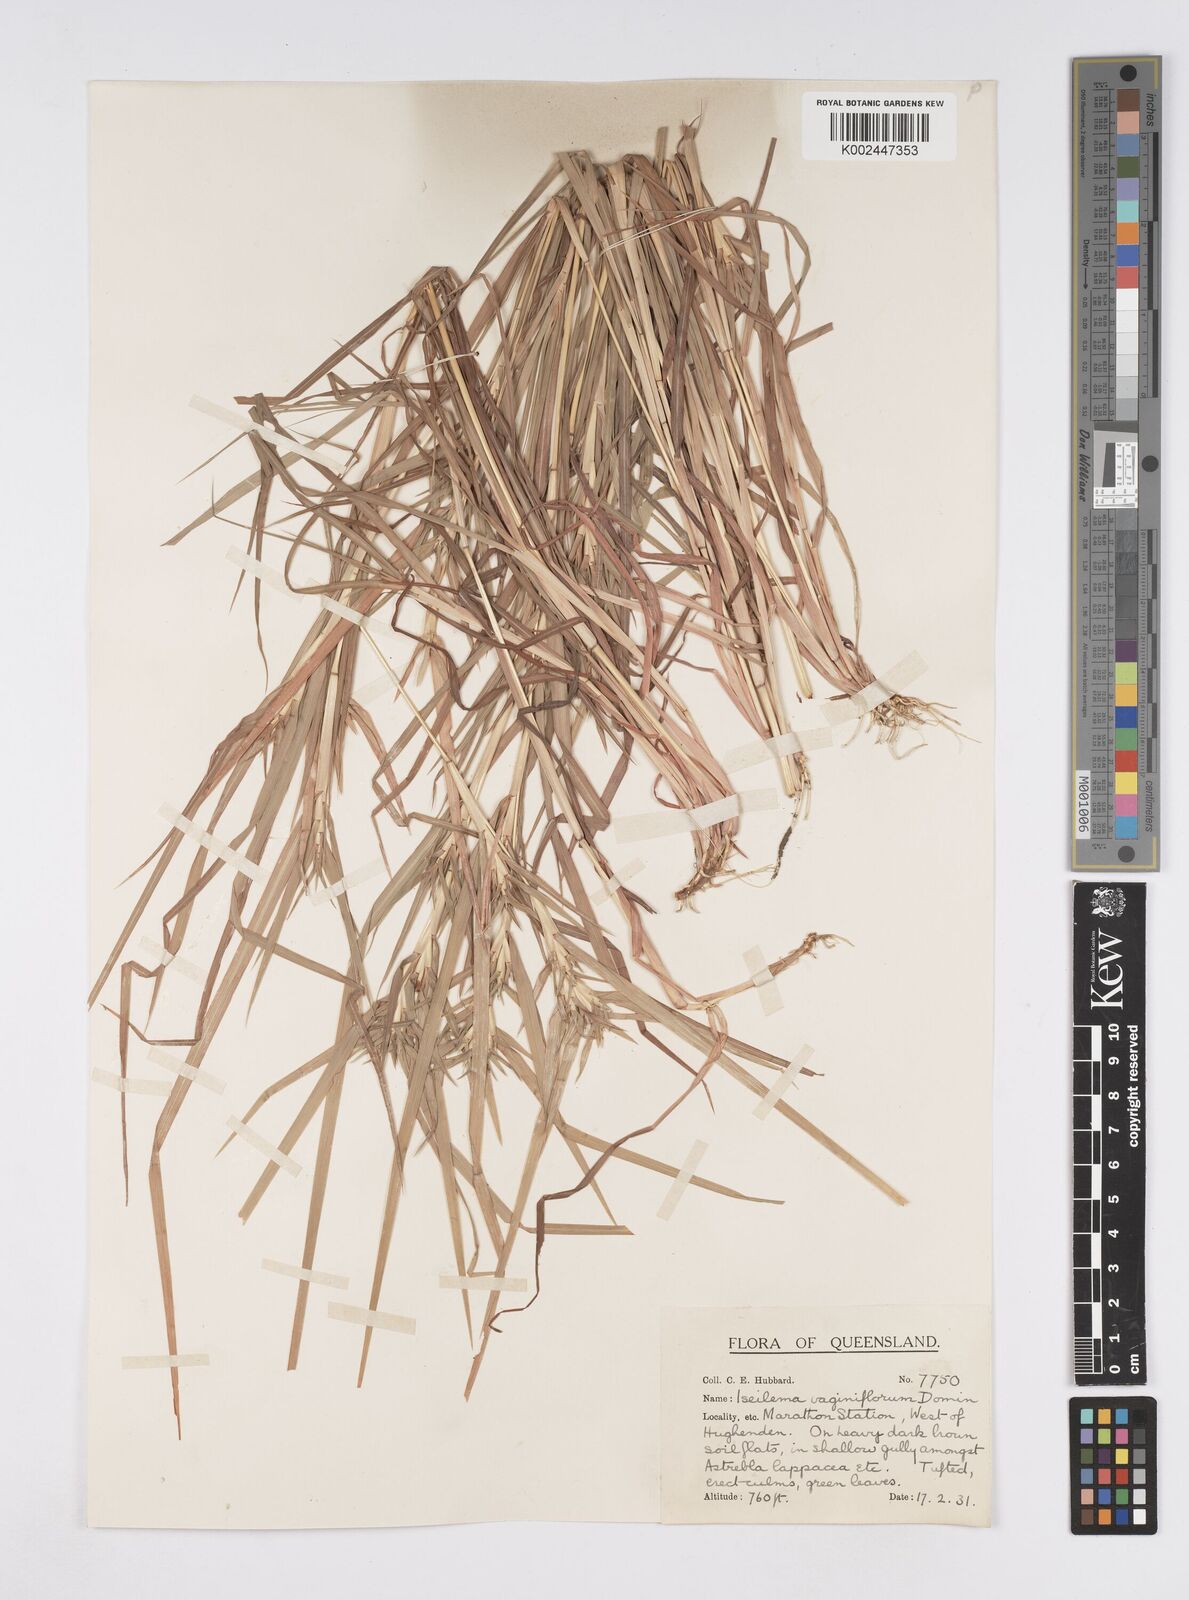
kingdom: Plantae
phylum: Tracheophyta
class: Liliopsida
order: Poales
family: Poaceae
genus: Iseilema
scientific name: Iseilema vaginiflorum
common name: Red flinders grass
